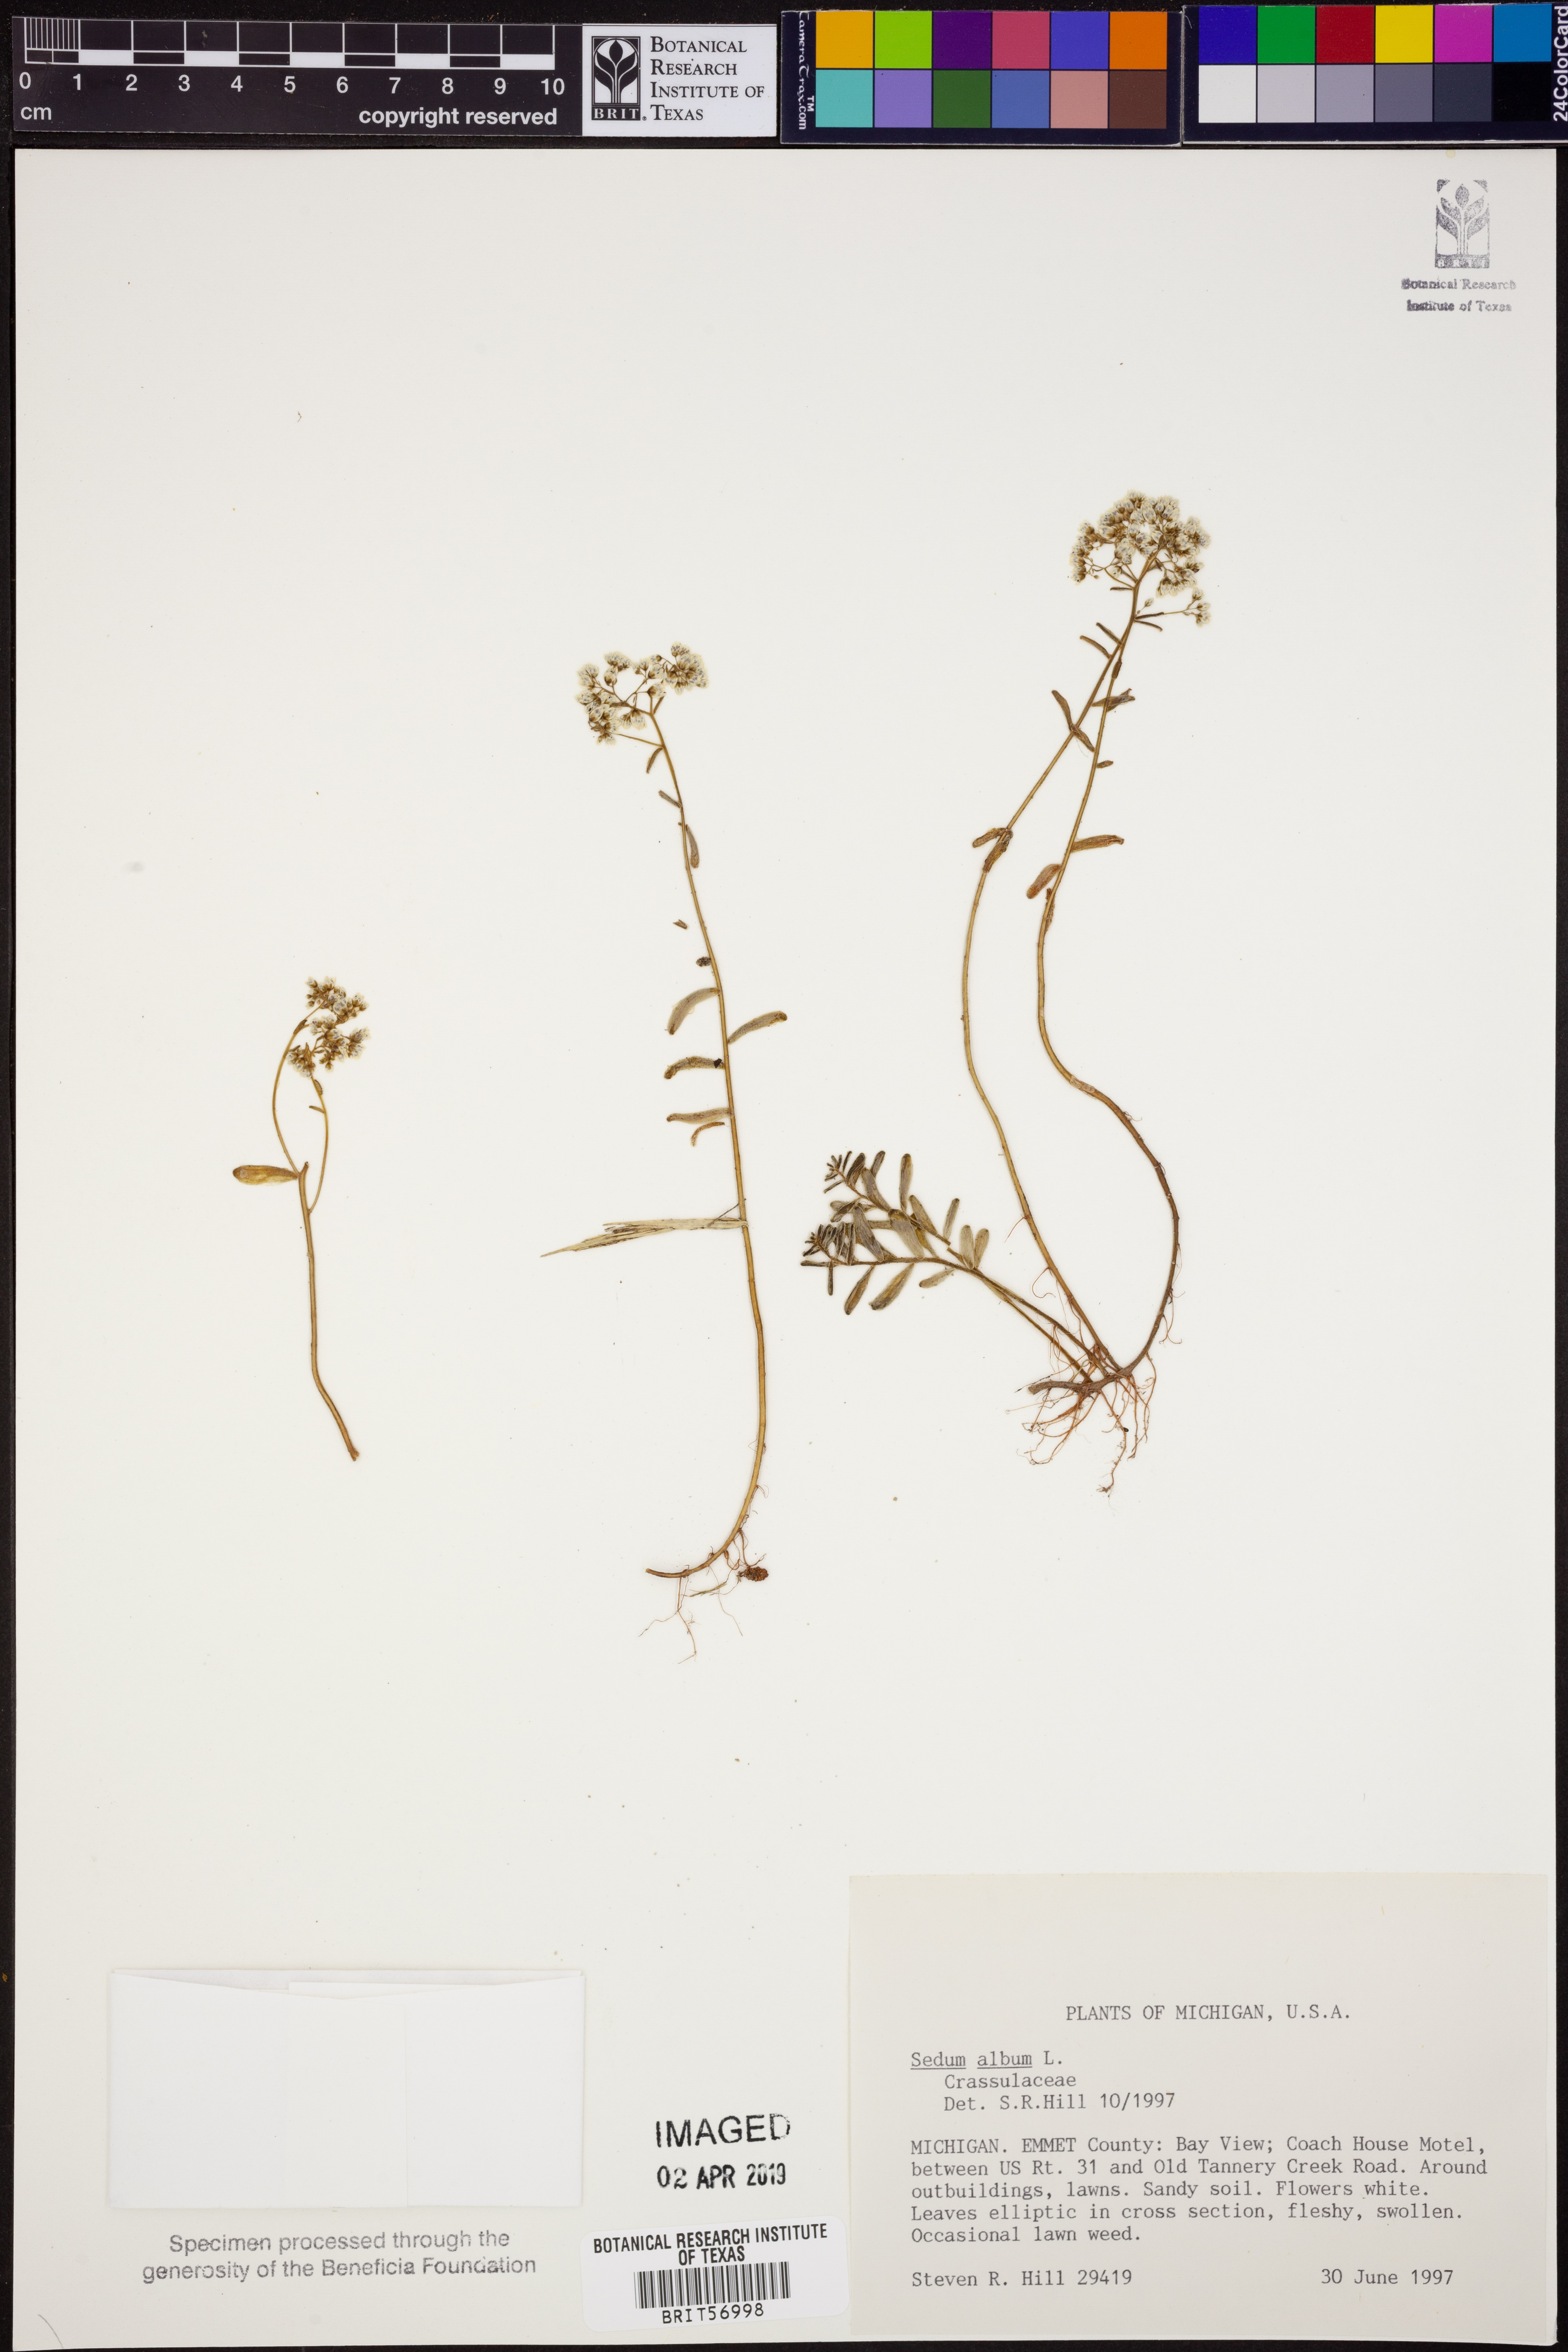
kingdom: Plantae
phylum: Tracheophyta
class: Magnoliopsida
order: Saxifragales
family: Crassulaceae
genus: Sedum
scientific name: Sedum album
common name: White stonecrop
